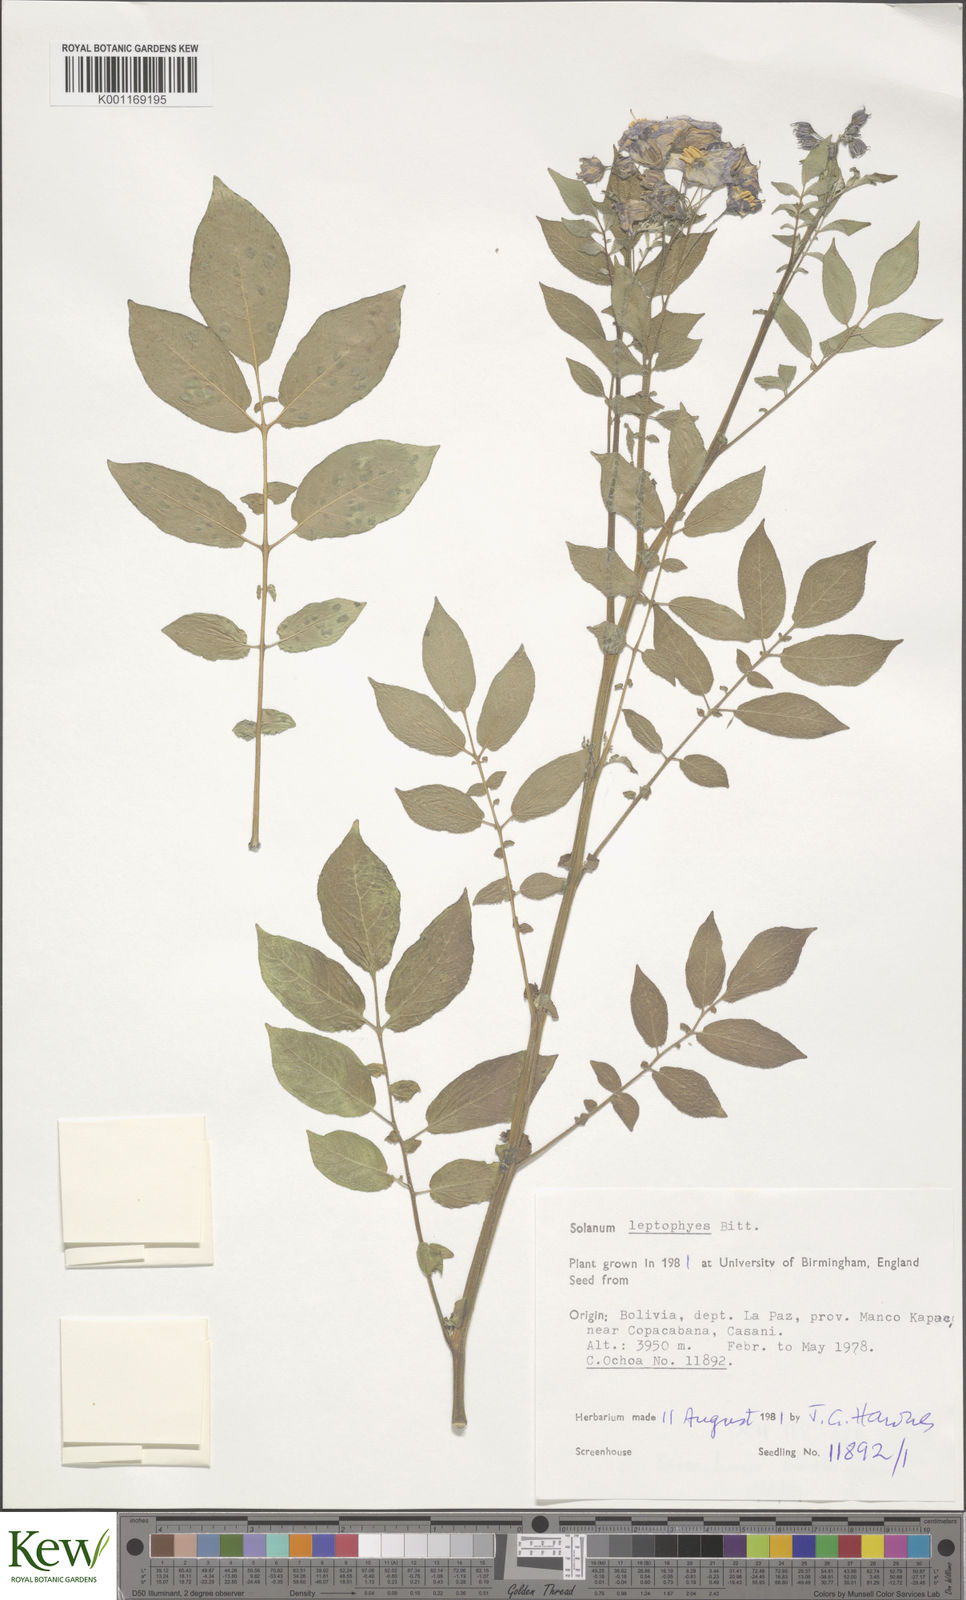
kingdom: Plantae
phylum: Tracheophyta
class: Magnoliopsida
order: Solanales
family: Solanaceae
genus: Solanum
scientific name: Solanum brevicaule
